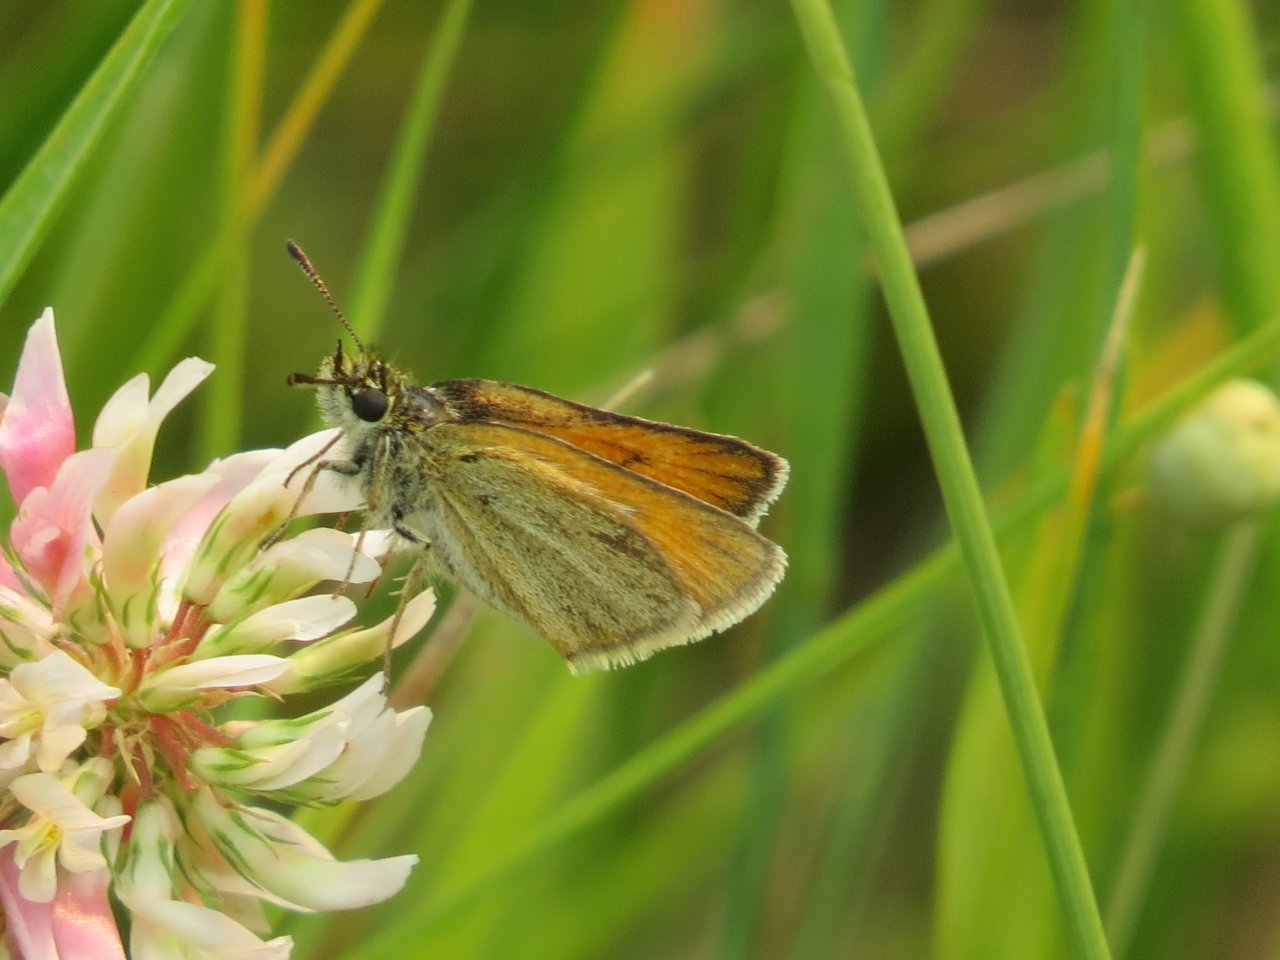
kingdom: Animalia
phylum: Arthropoda
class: Insecta
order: Lepidoptera
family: Hesperiidae
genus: Oarisma
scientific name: Oarisma garita
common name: Garita Skipperling
